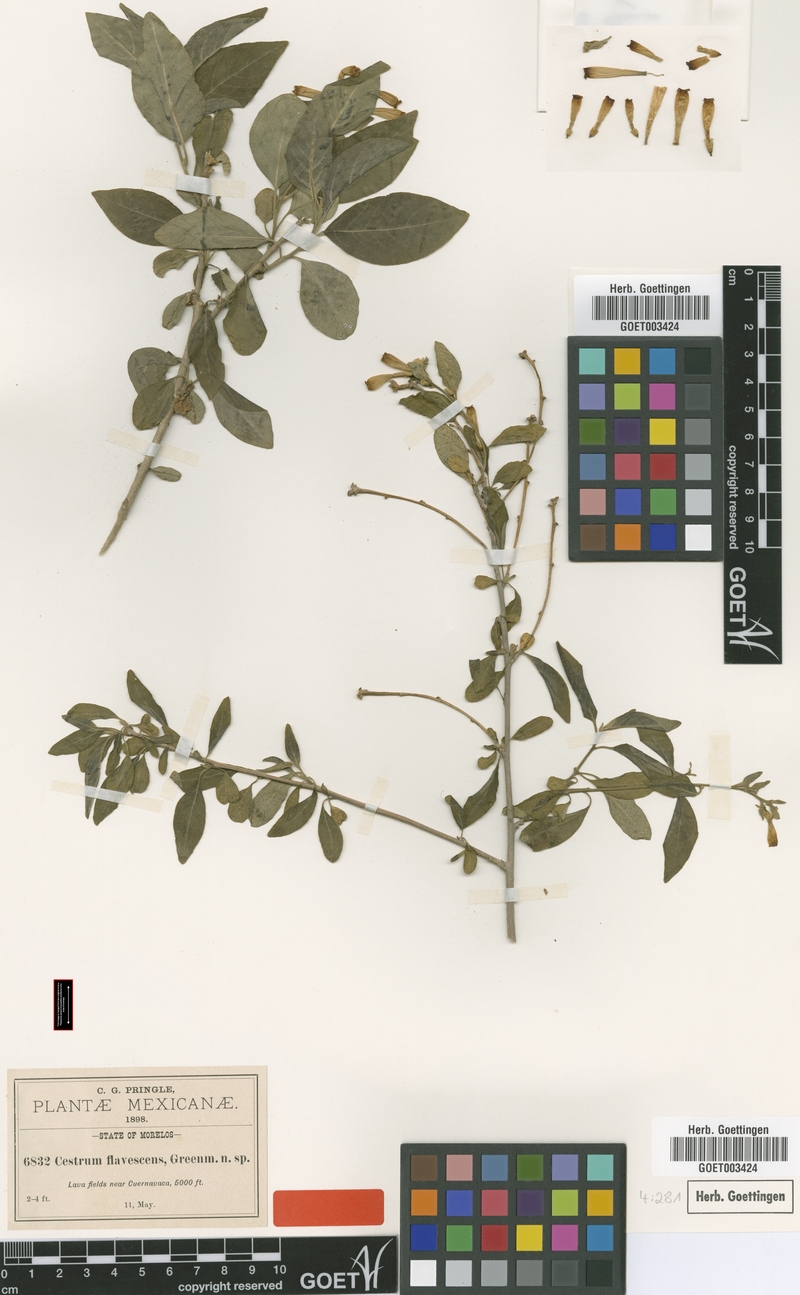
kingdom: Plantae
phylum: Tracheophyta
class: Magnoliopsida
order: Solanales
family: Solanaceae
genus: Cestrum
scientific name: Cestrum flavescens
